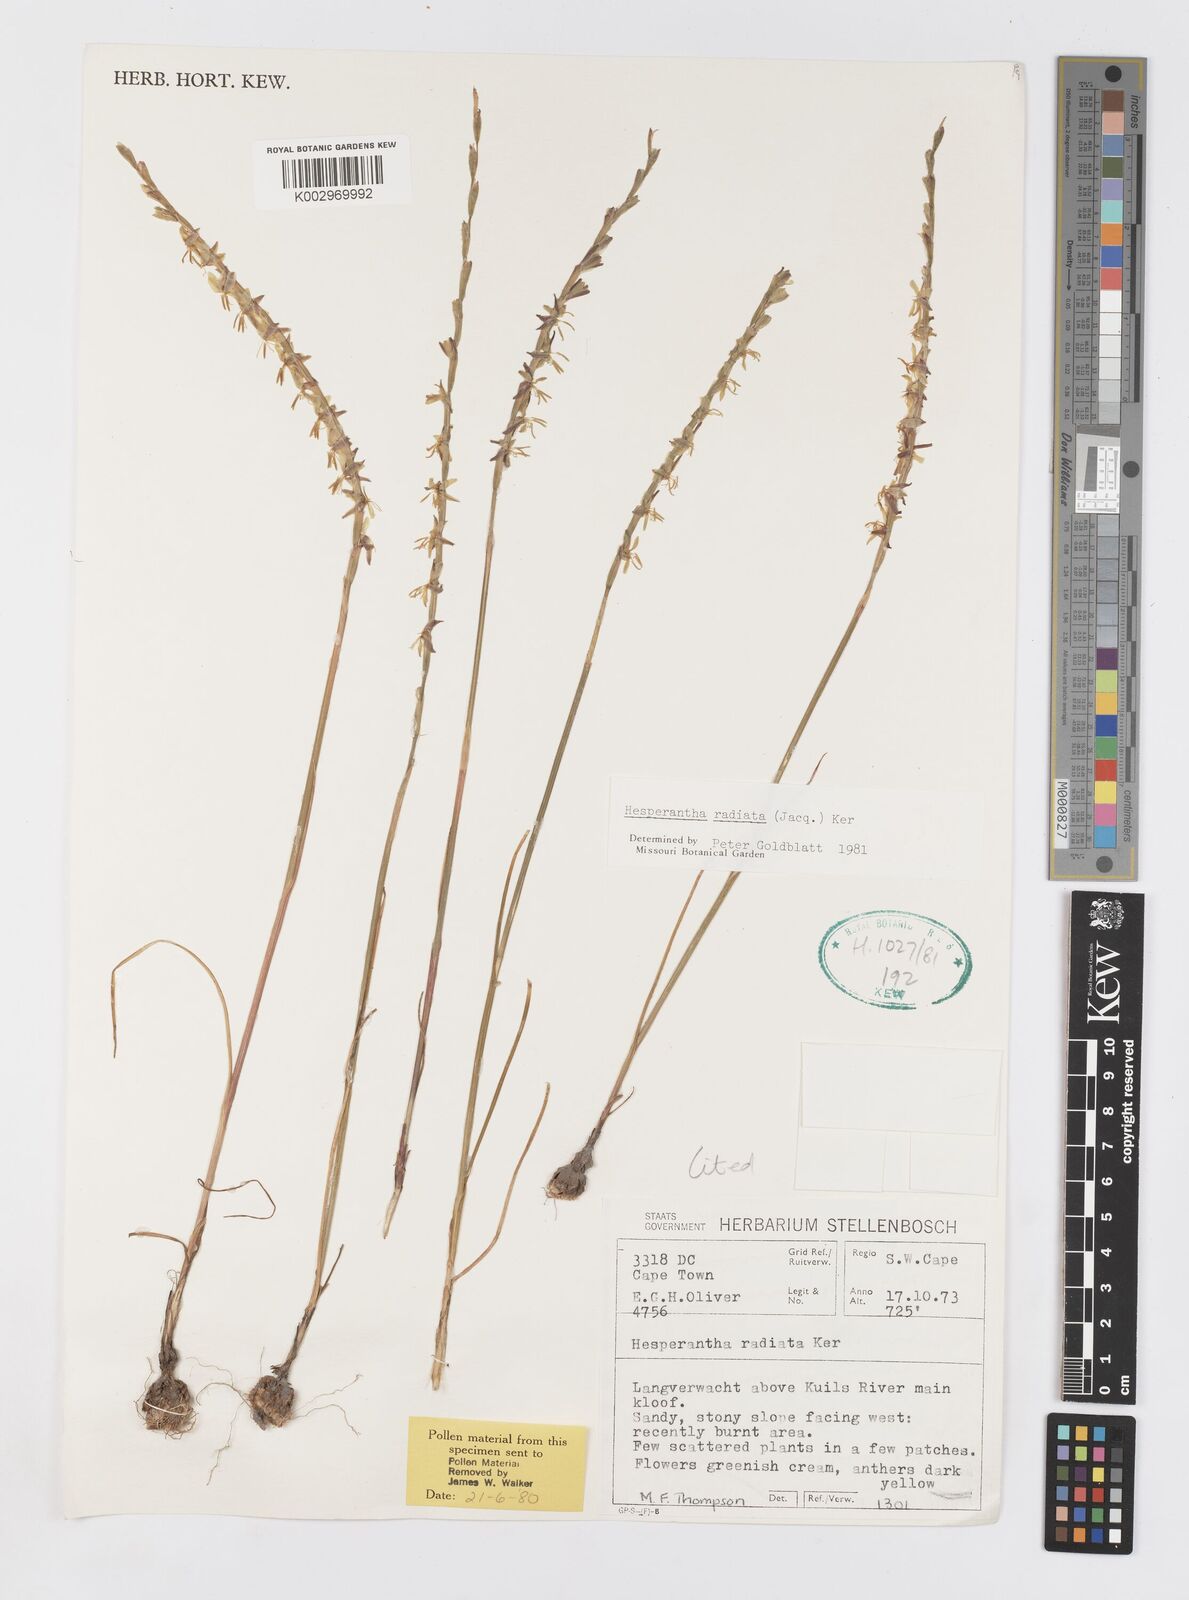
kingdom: Plantae
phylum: Tracheophyta
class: Liliopsida
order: Asparagales
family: Iridaceae
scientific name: Iridaceae
